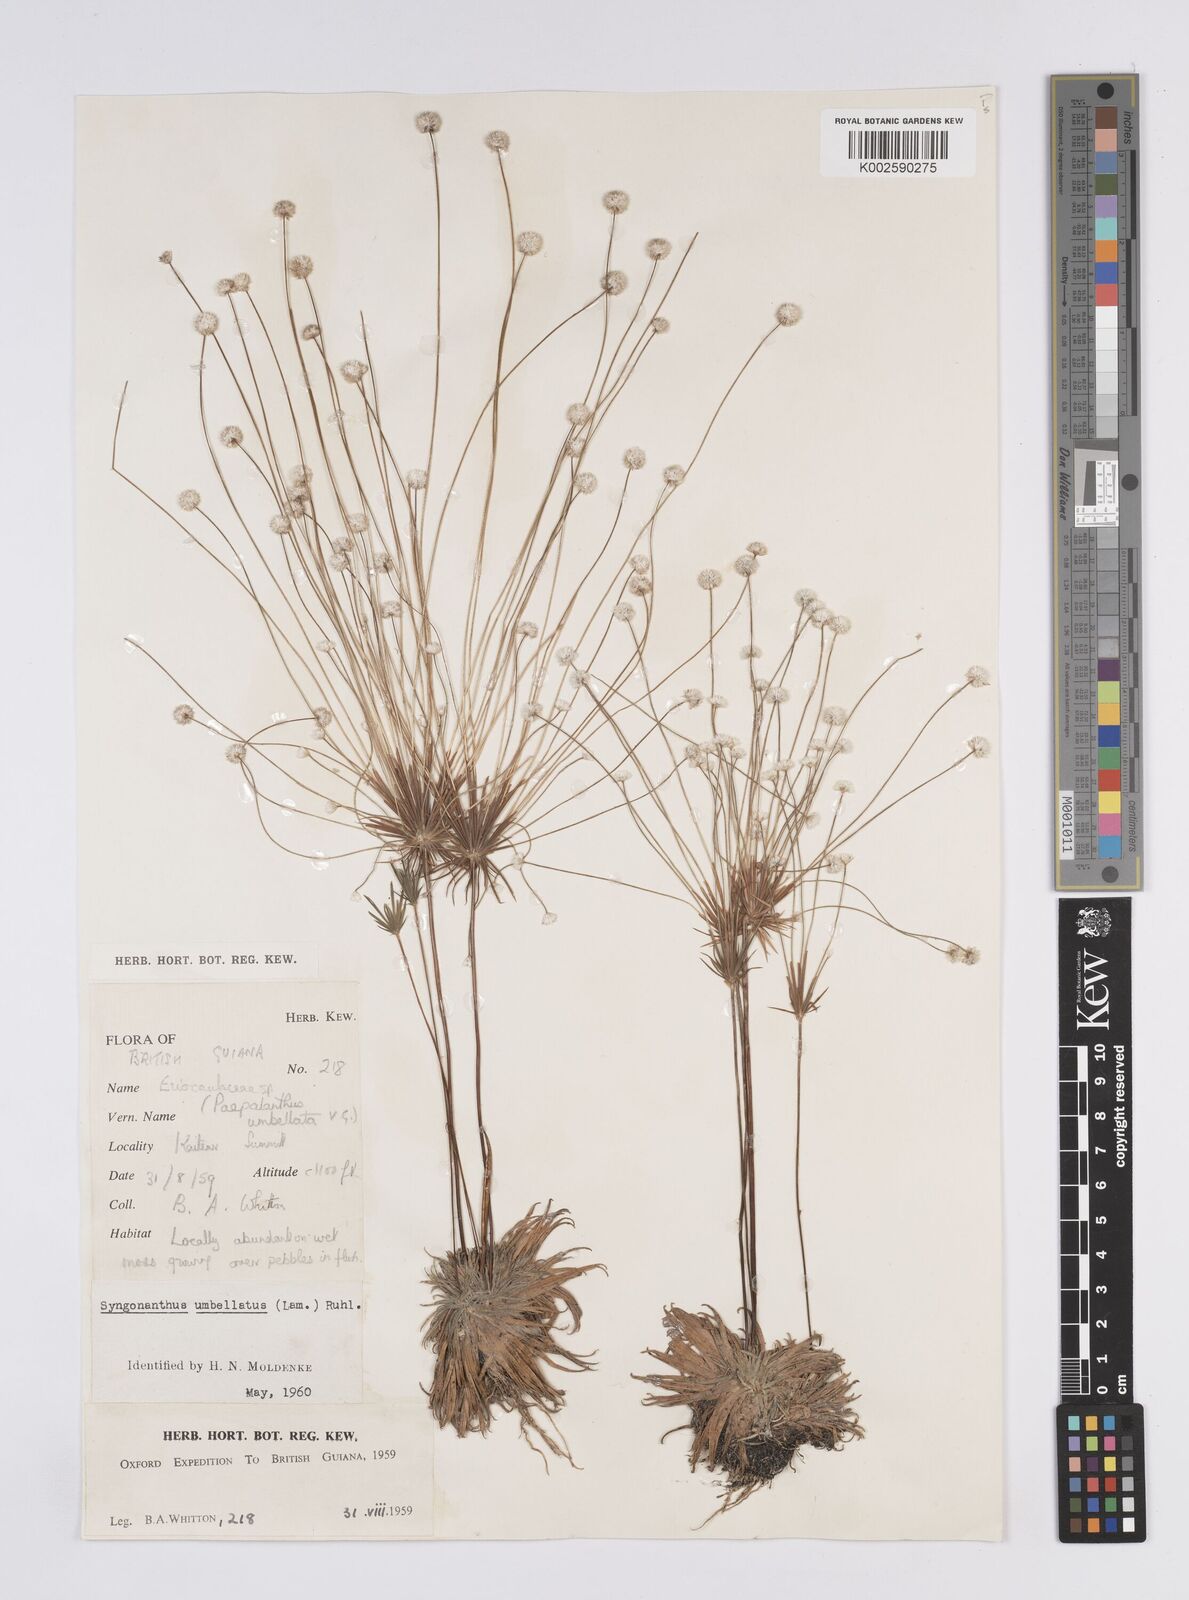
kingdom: Plantae
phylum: Tracheophyta
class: Liliopsida
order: Poales
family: Eriocaulaceae
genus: Syngonanthus
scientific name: Syngonanthus umbellatus
